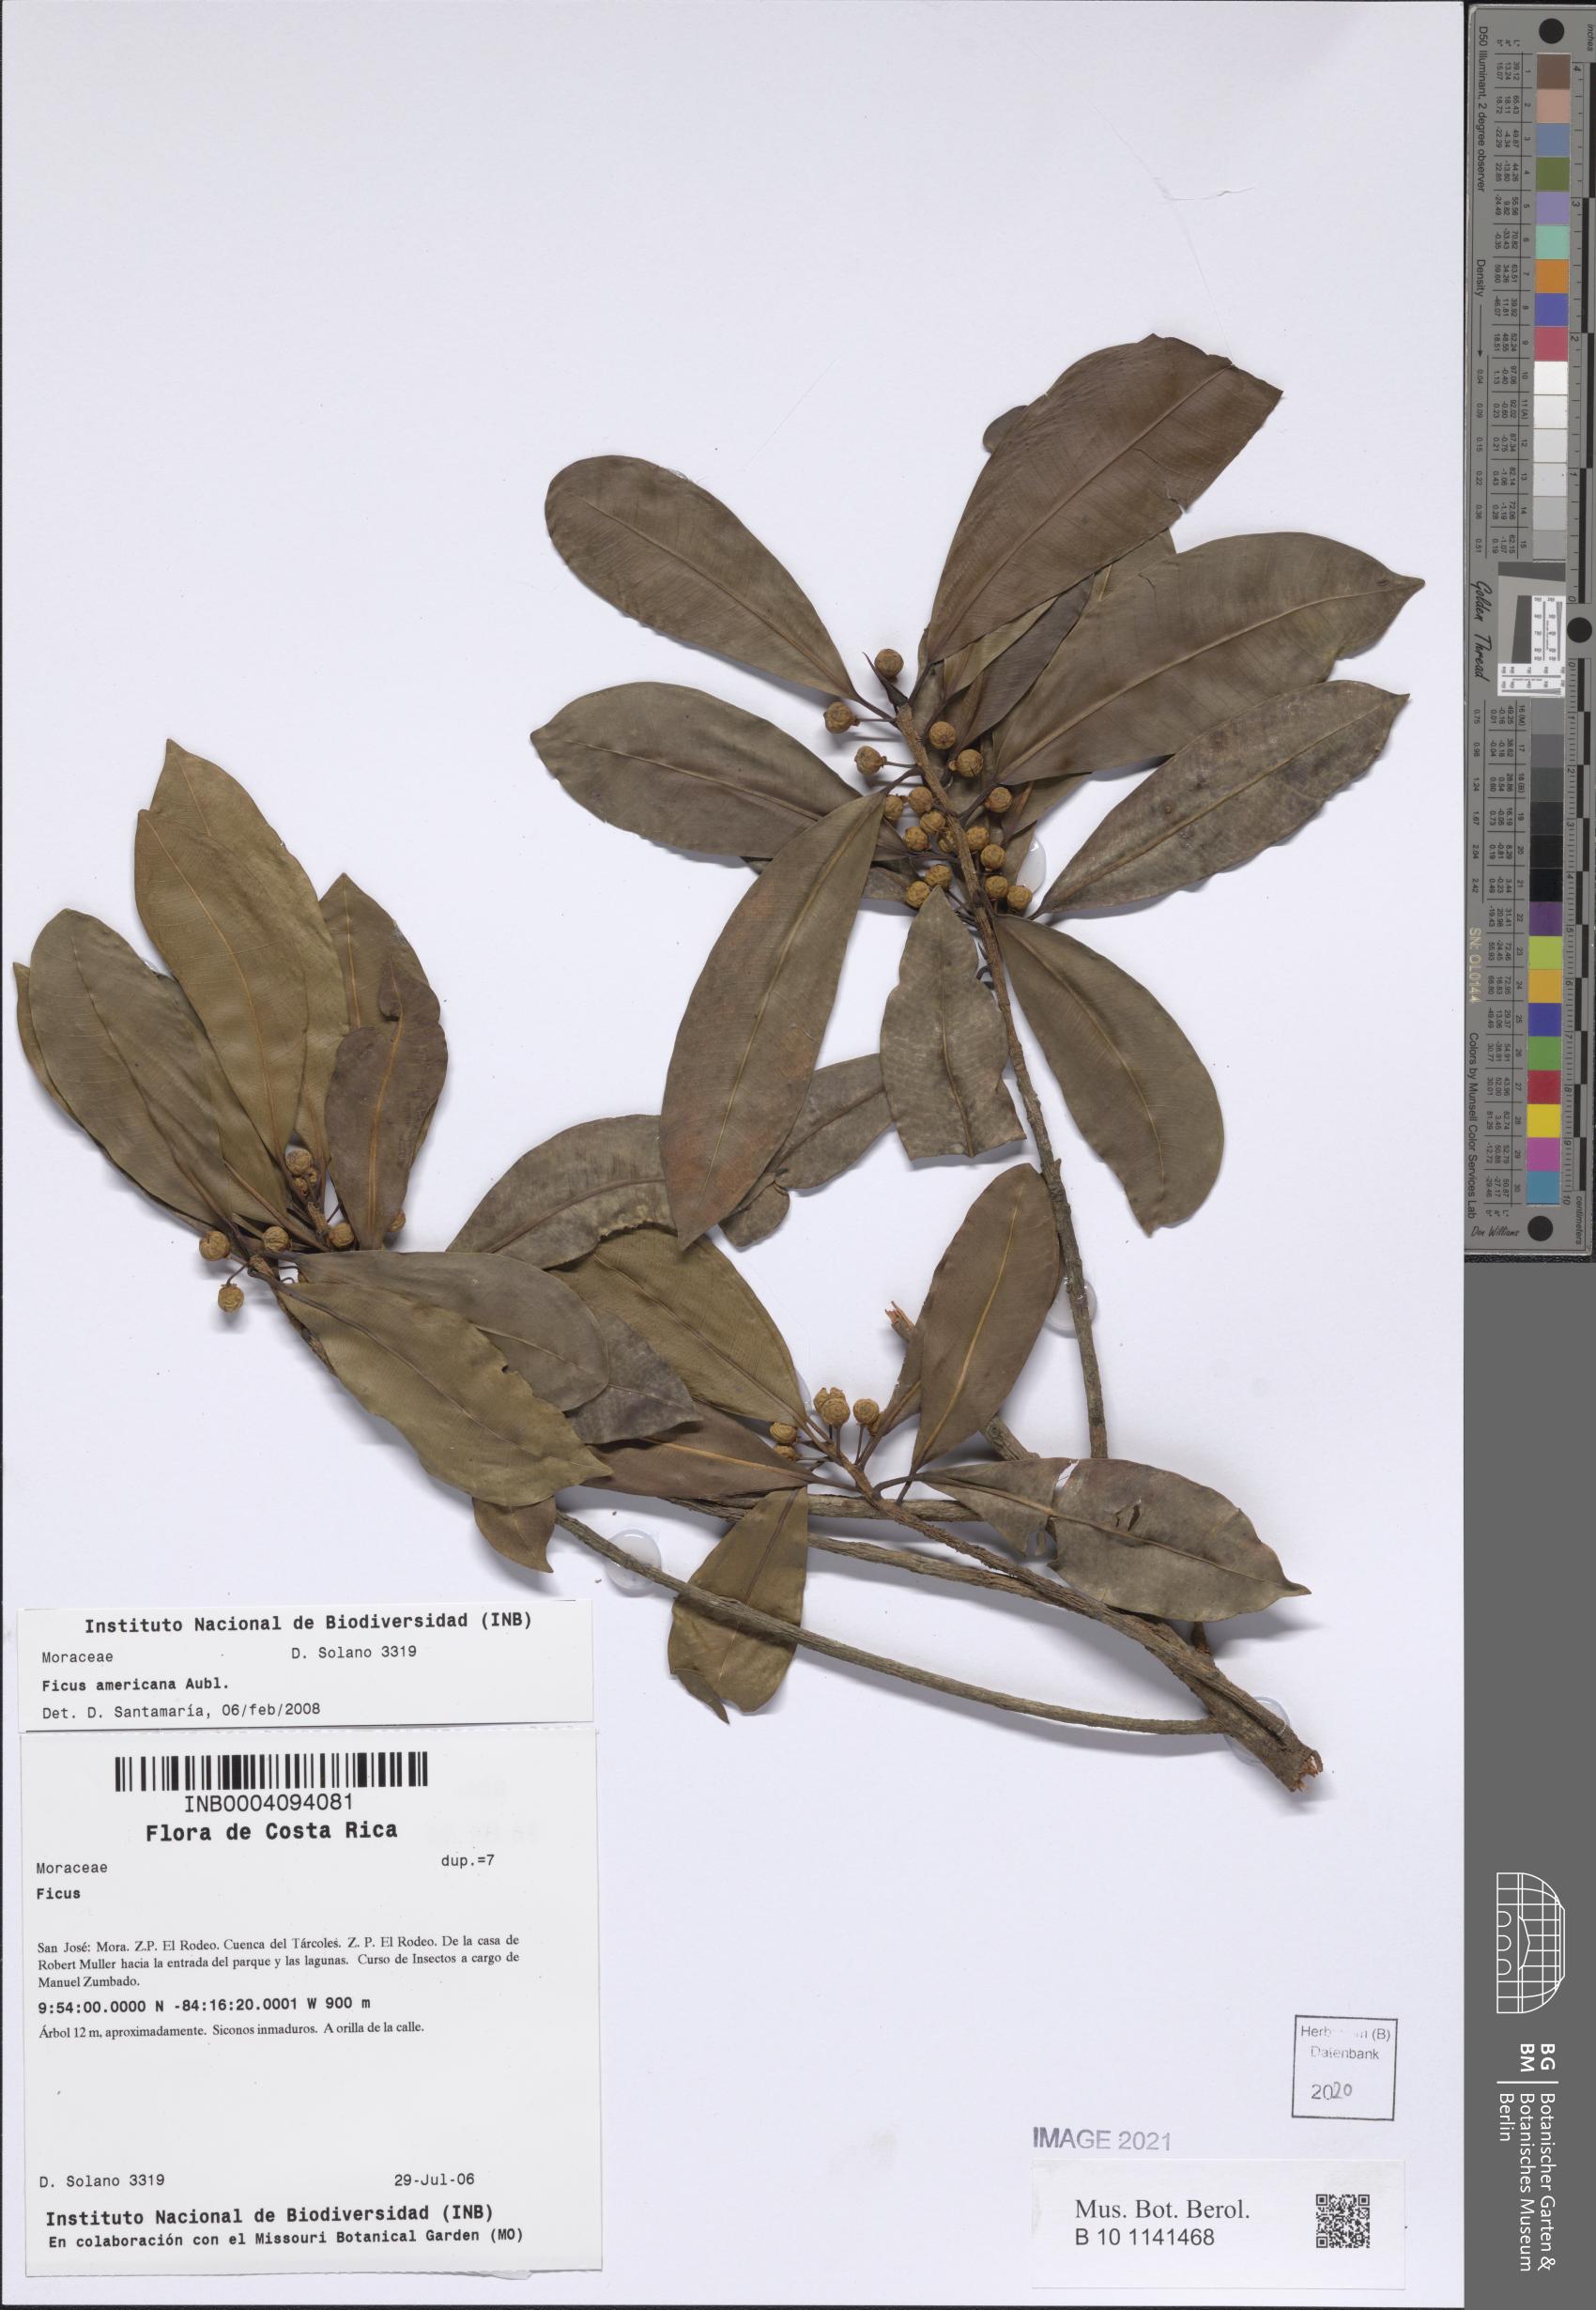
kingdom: Plantae
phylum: Tracheophyta
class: Magnoliopsida
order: Rosales
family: Moraceae
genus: Ficus
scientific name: Ficus americana
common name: Jamaican cherry fig
